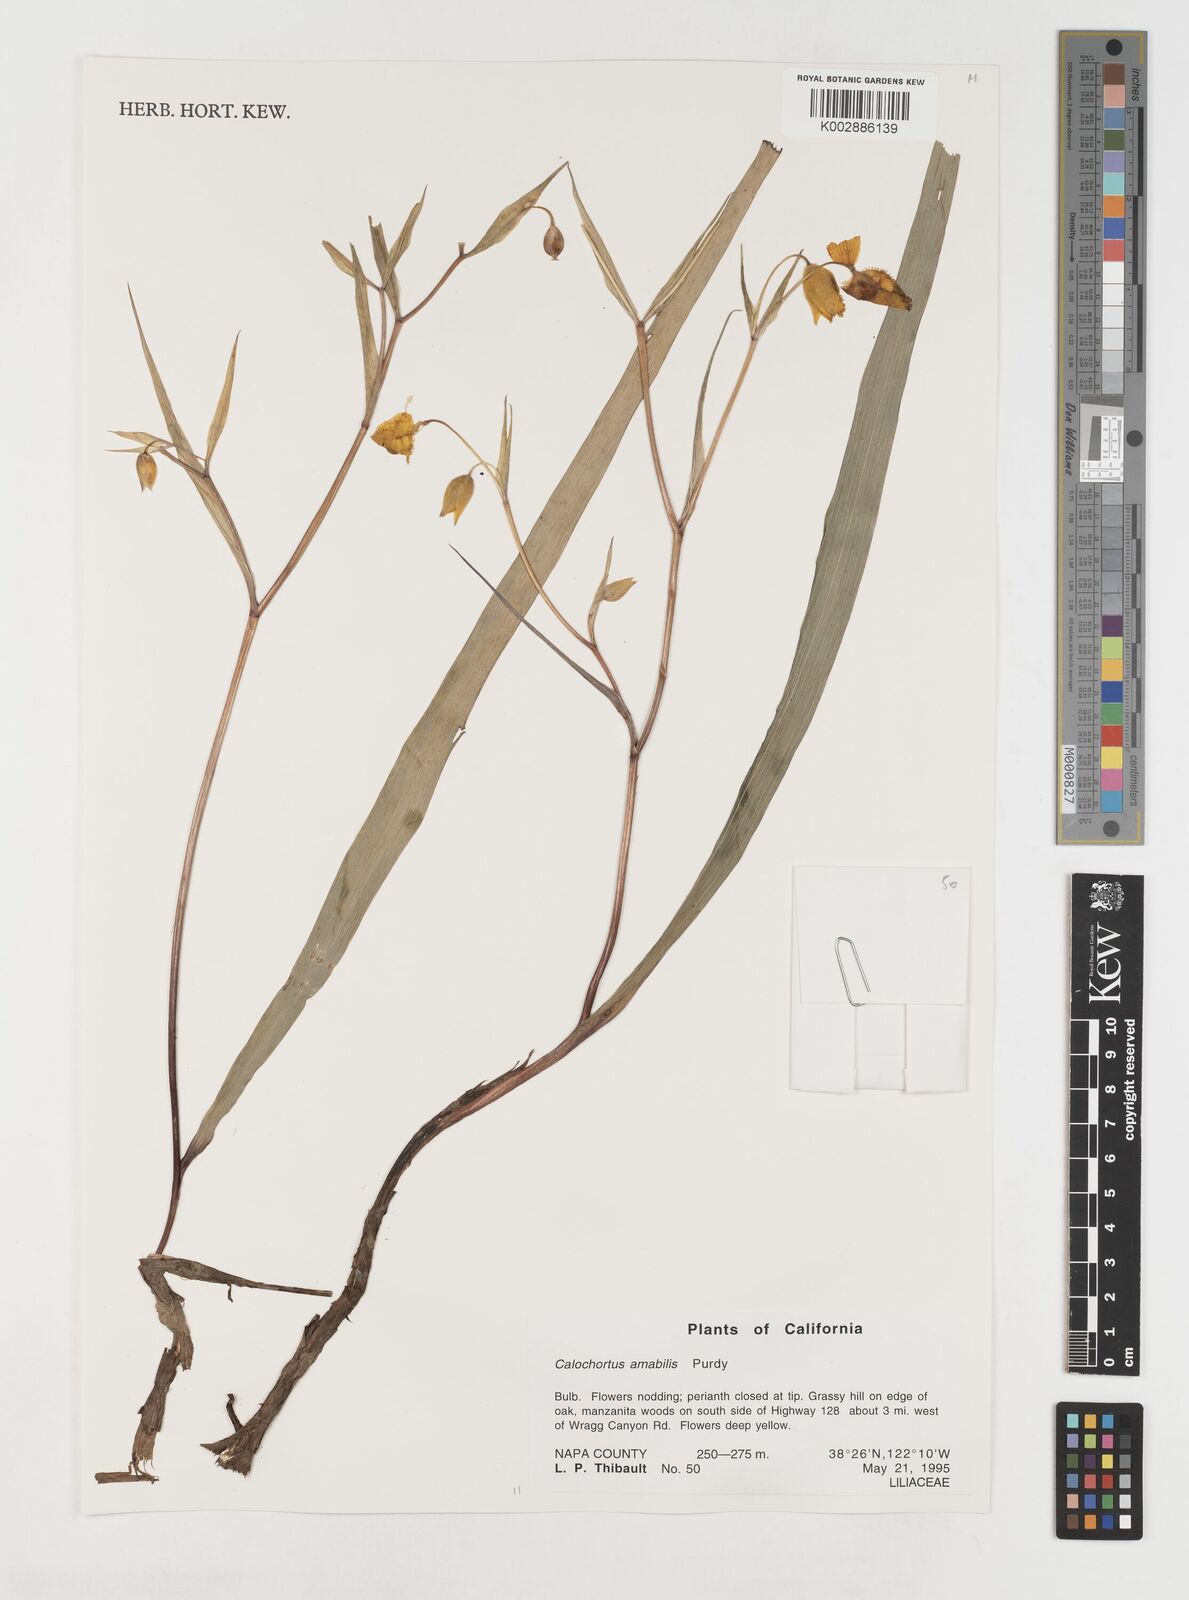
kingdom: Plantae
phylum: Tracheophyta
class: Liliopsida
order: Liliales
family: Liliaceae
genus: Calochortus
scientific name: Calochortus amabilis
